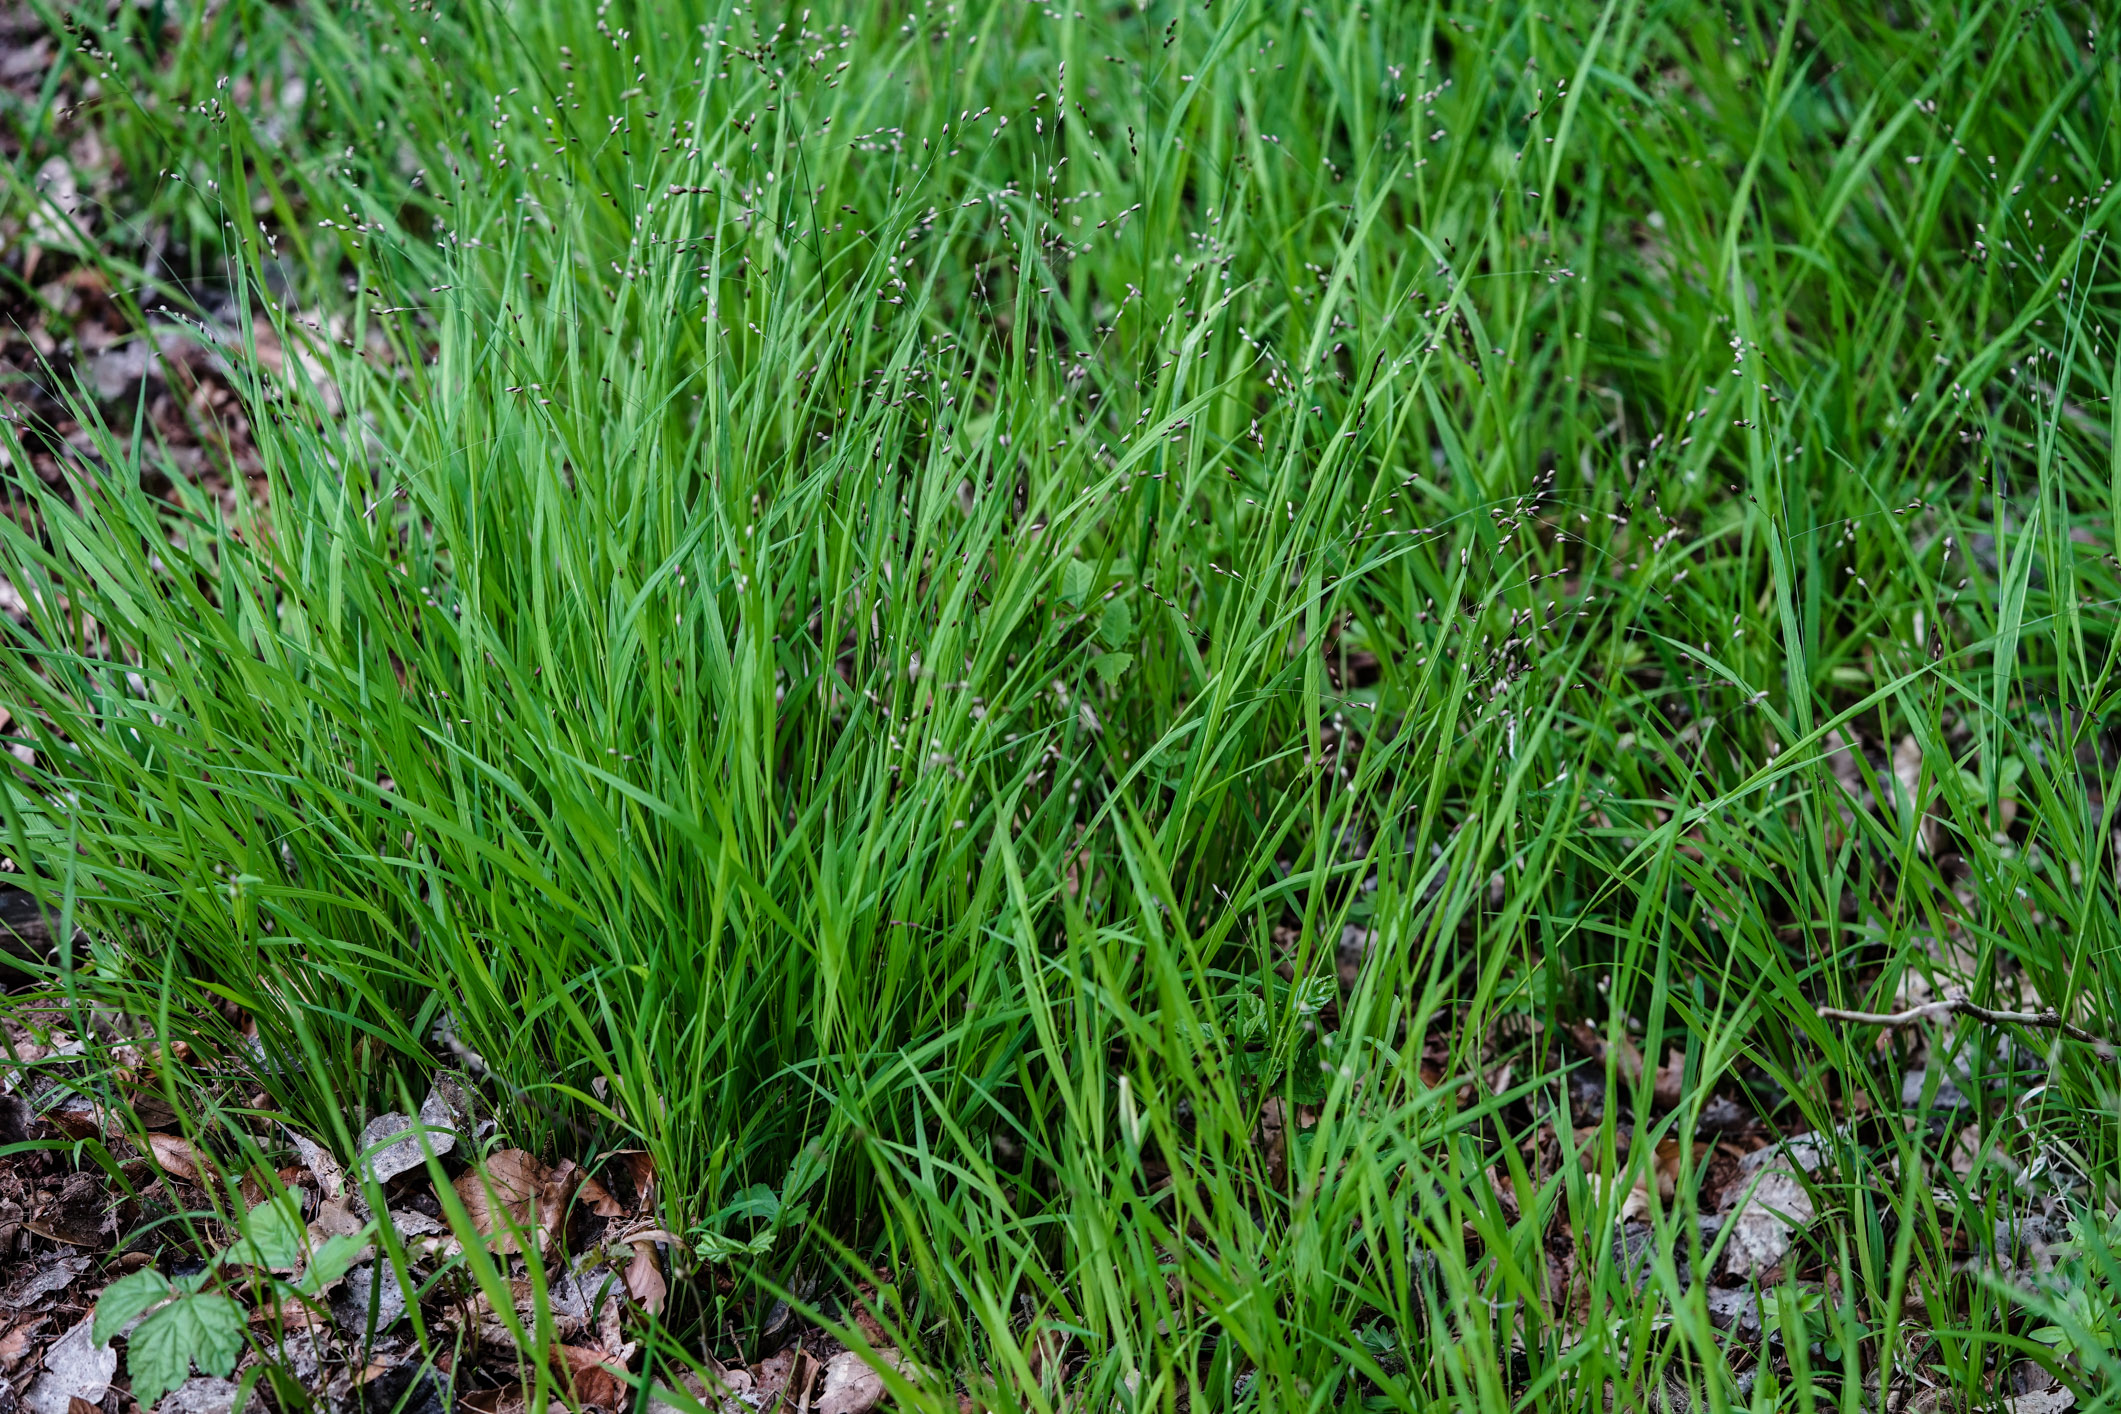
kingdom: Plantae
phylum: Tracheophyta
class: Liliopsida
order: Poales
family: Poaceae
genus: Melica
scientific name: Melica uniflora
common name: Wood melick
